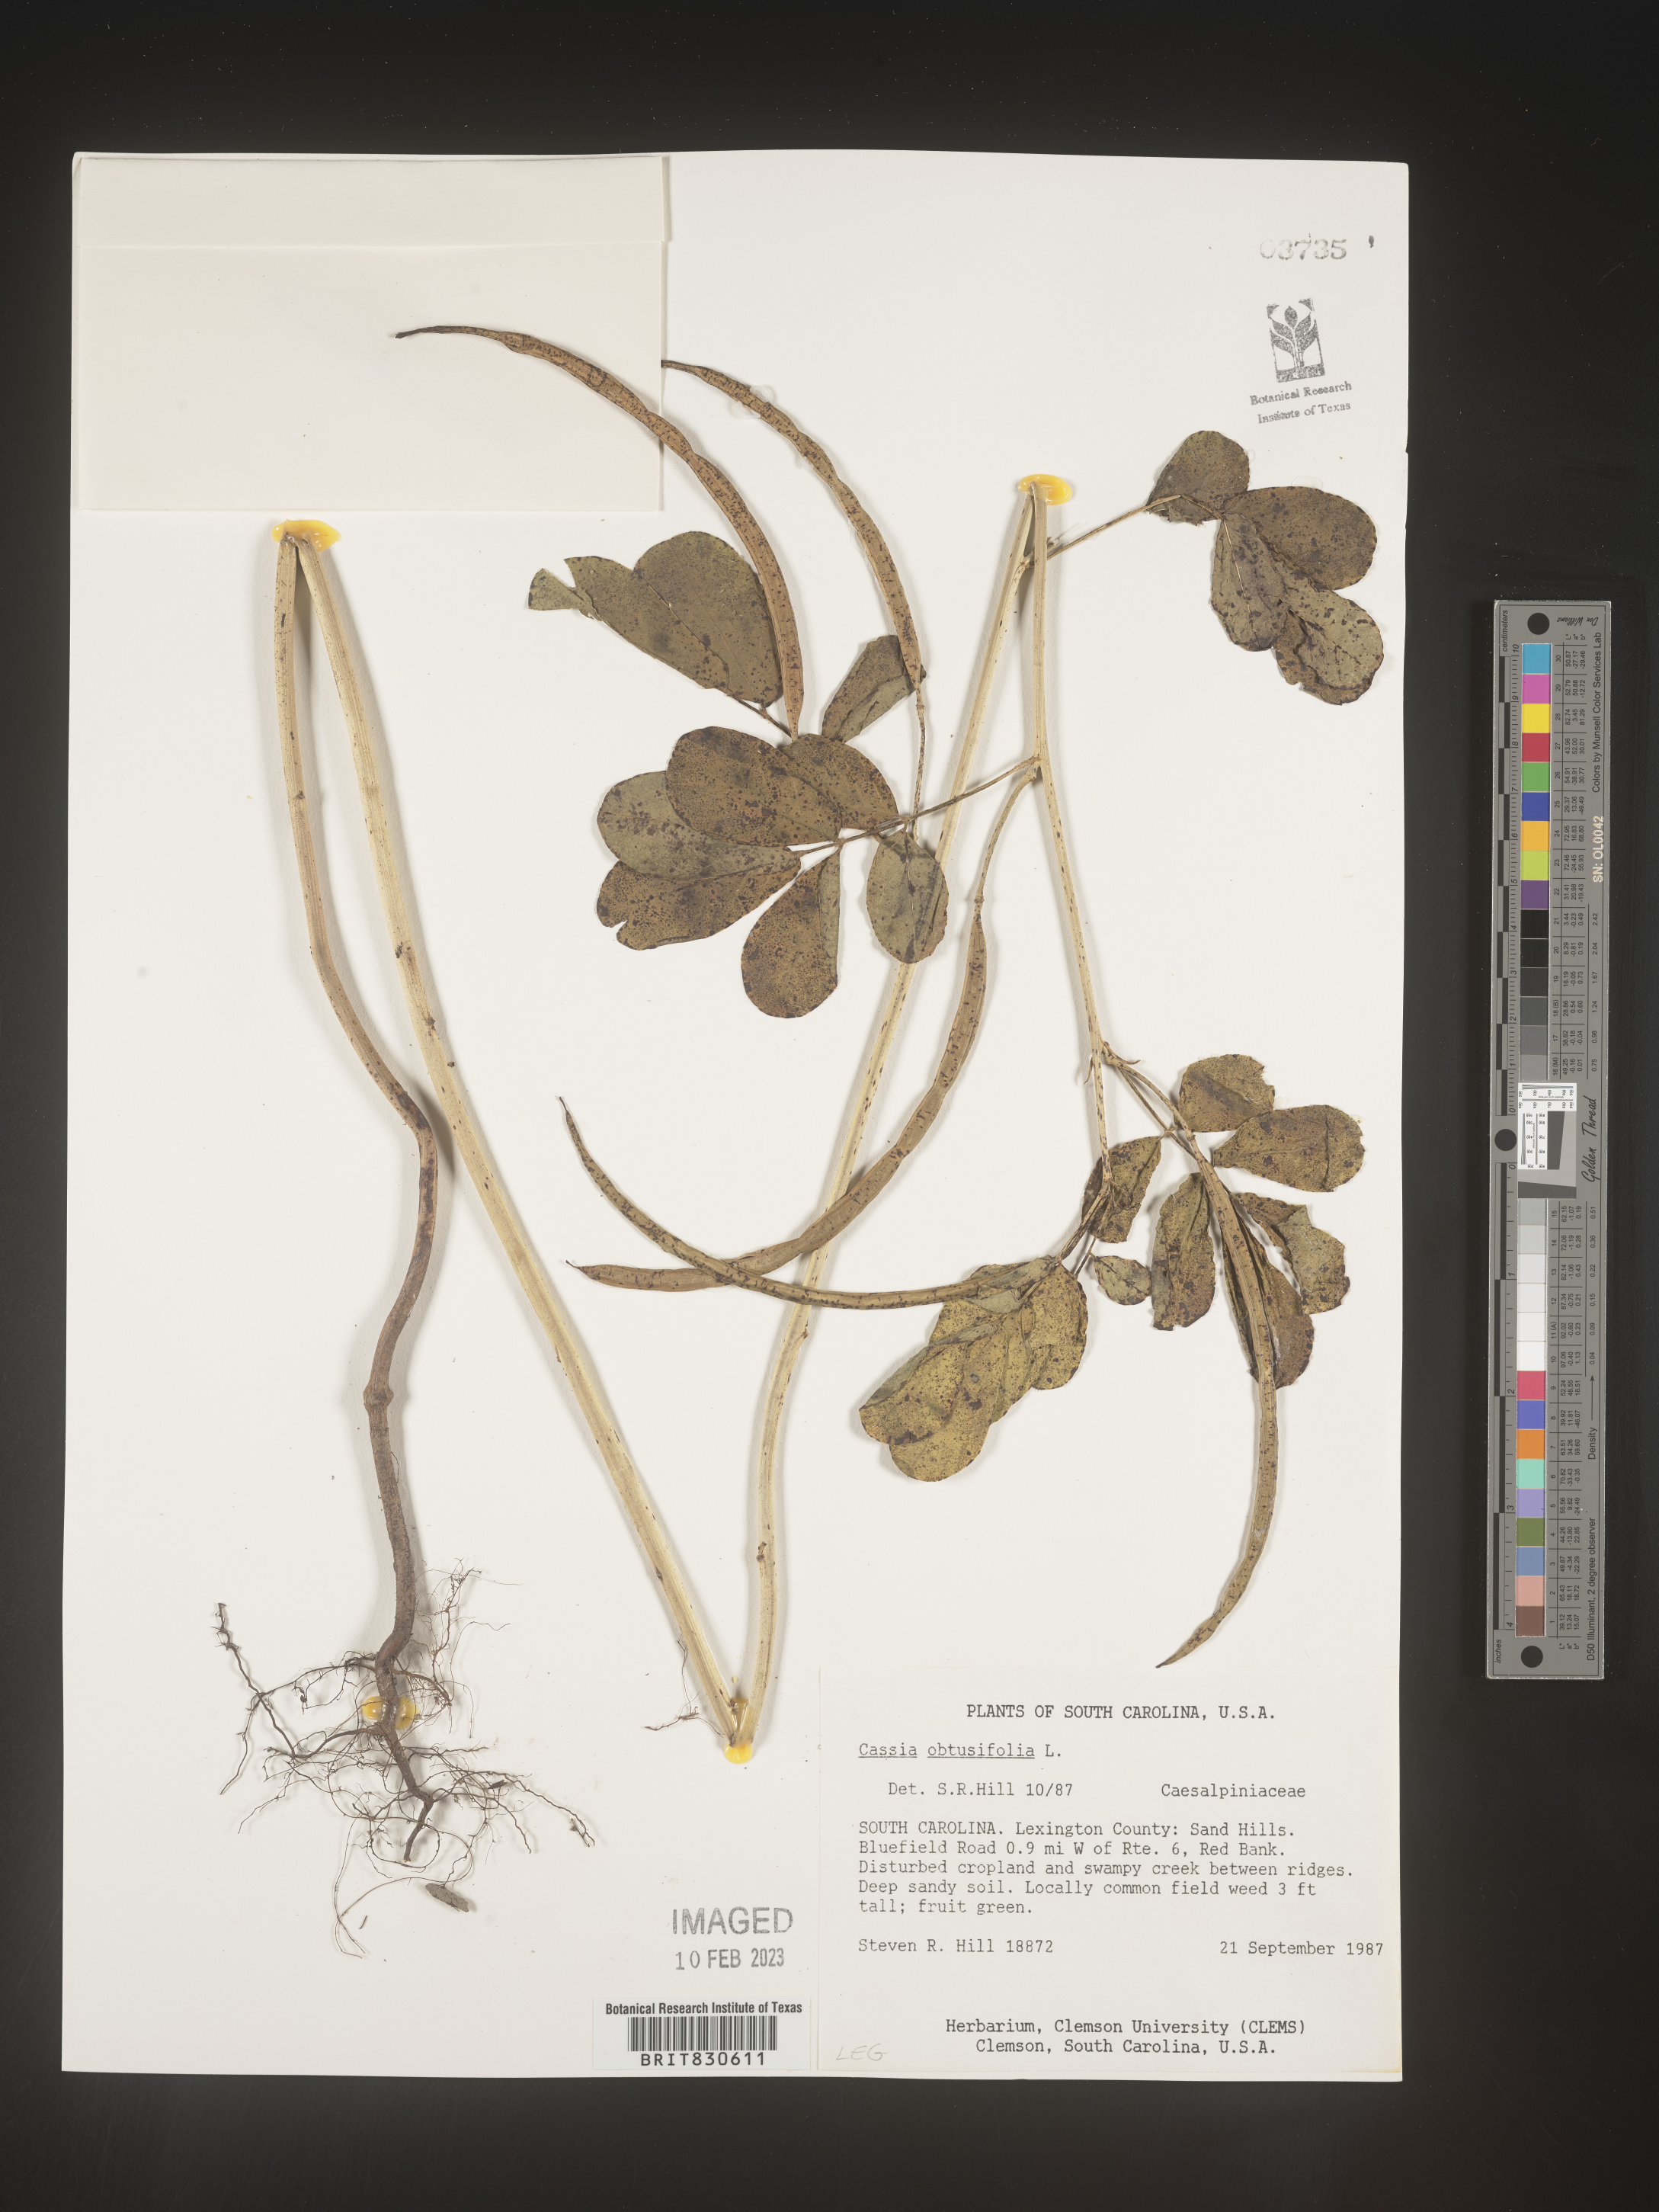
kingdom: Plantae
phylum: Tracheophyta
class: Magnoliopsida
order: Fabales
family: Fabaceae
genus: Senna
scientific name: Senna obtusifolia
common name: Java-bean
